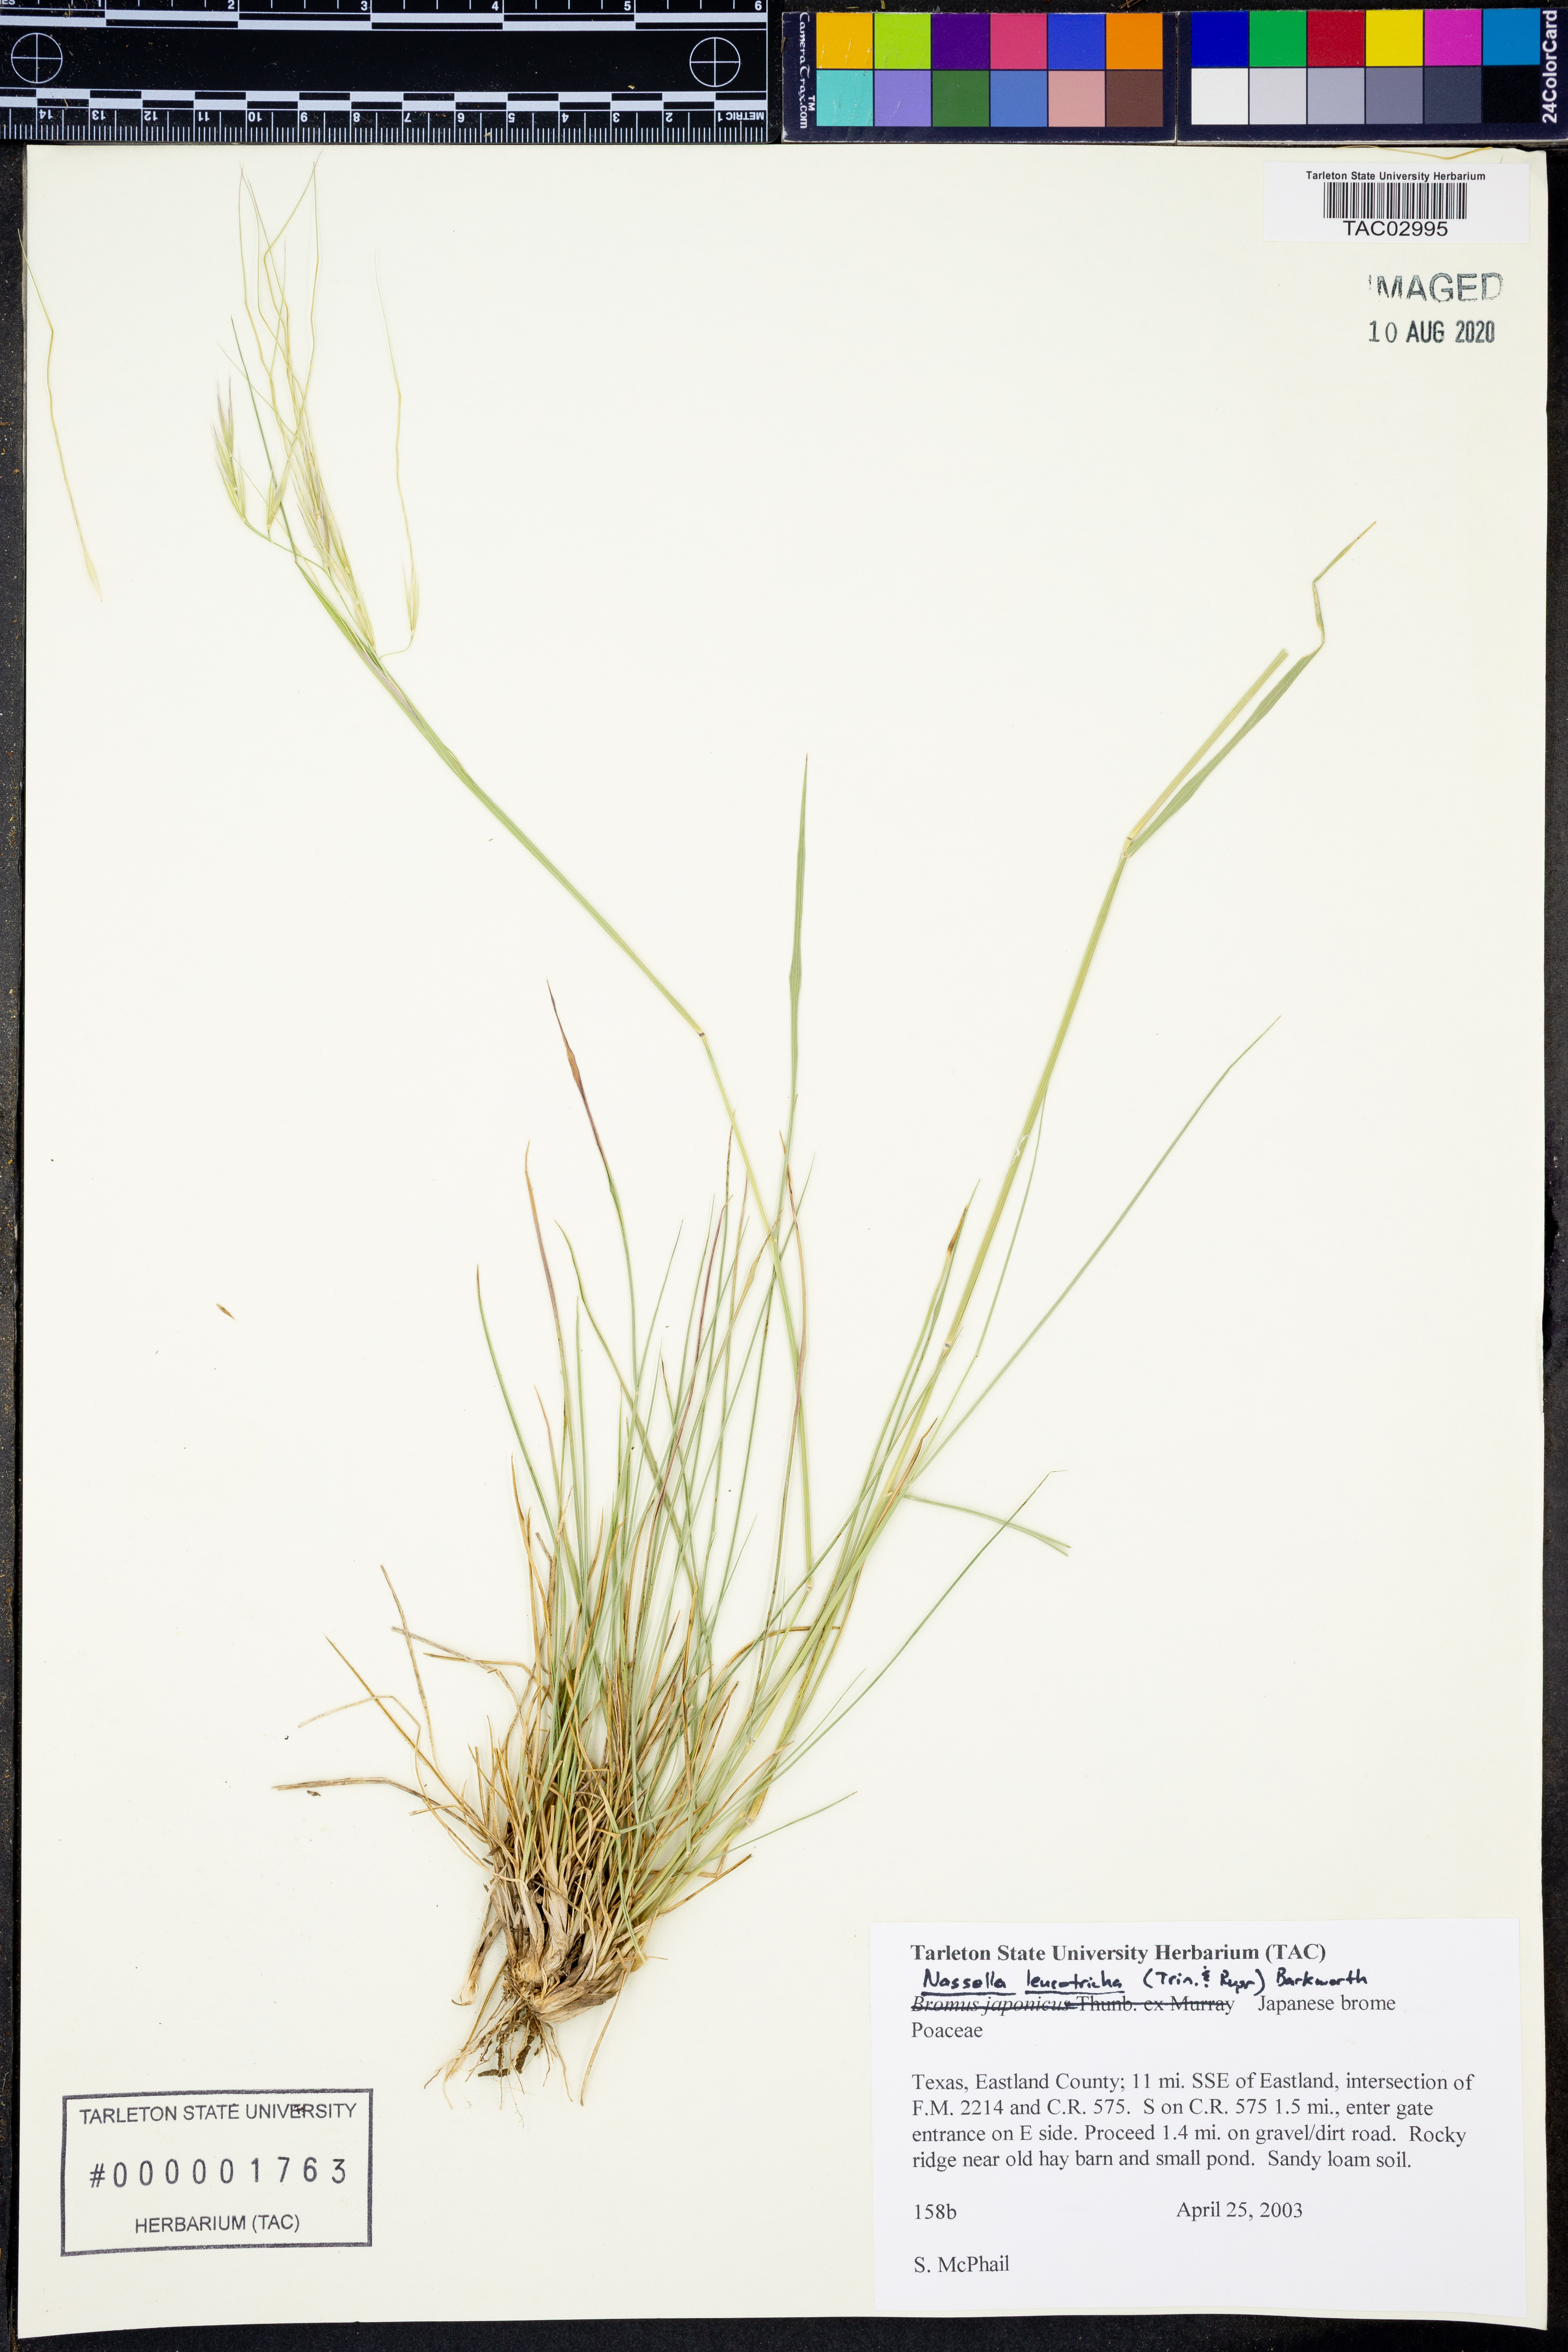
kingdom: Plantae
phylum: Tracheophyta
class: Liliopsida
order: Poales
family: Poaceae
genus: Nassella
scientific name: Nassella leucotricha
